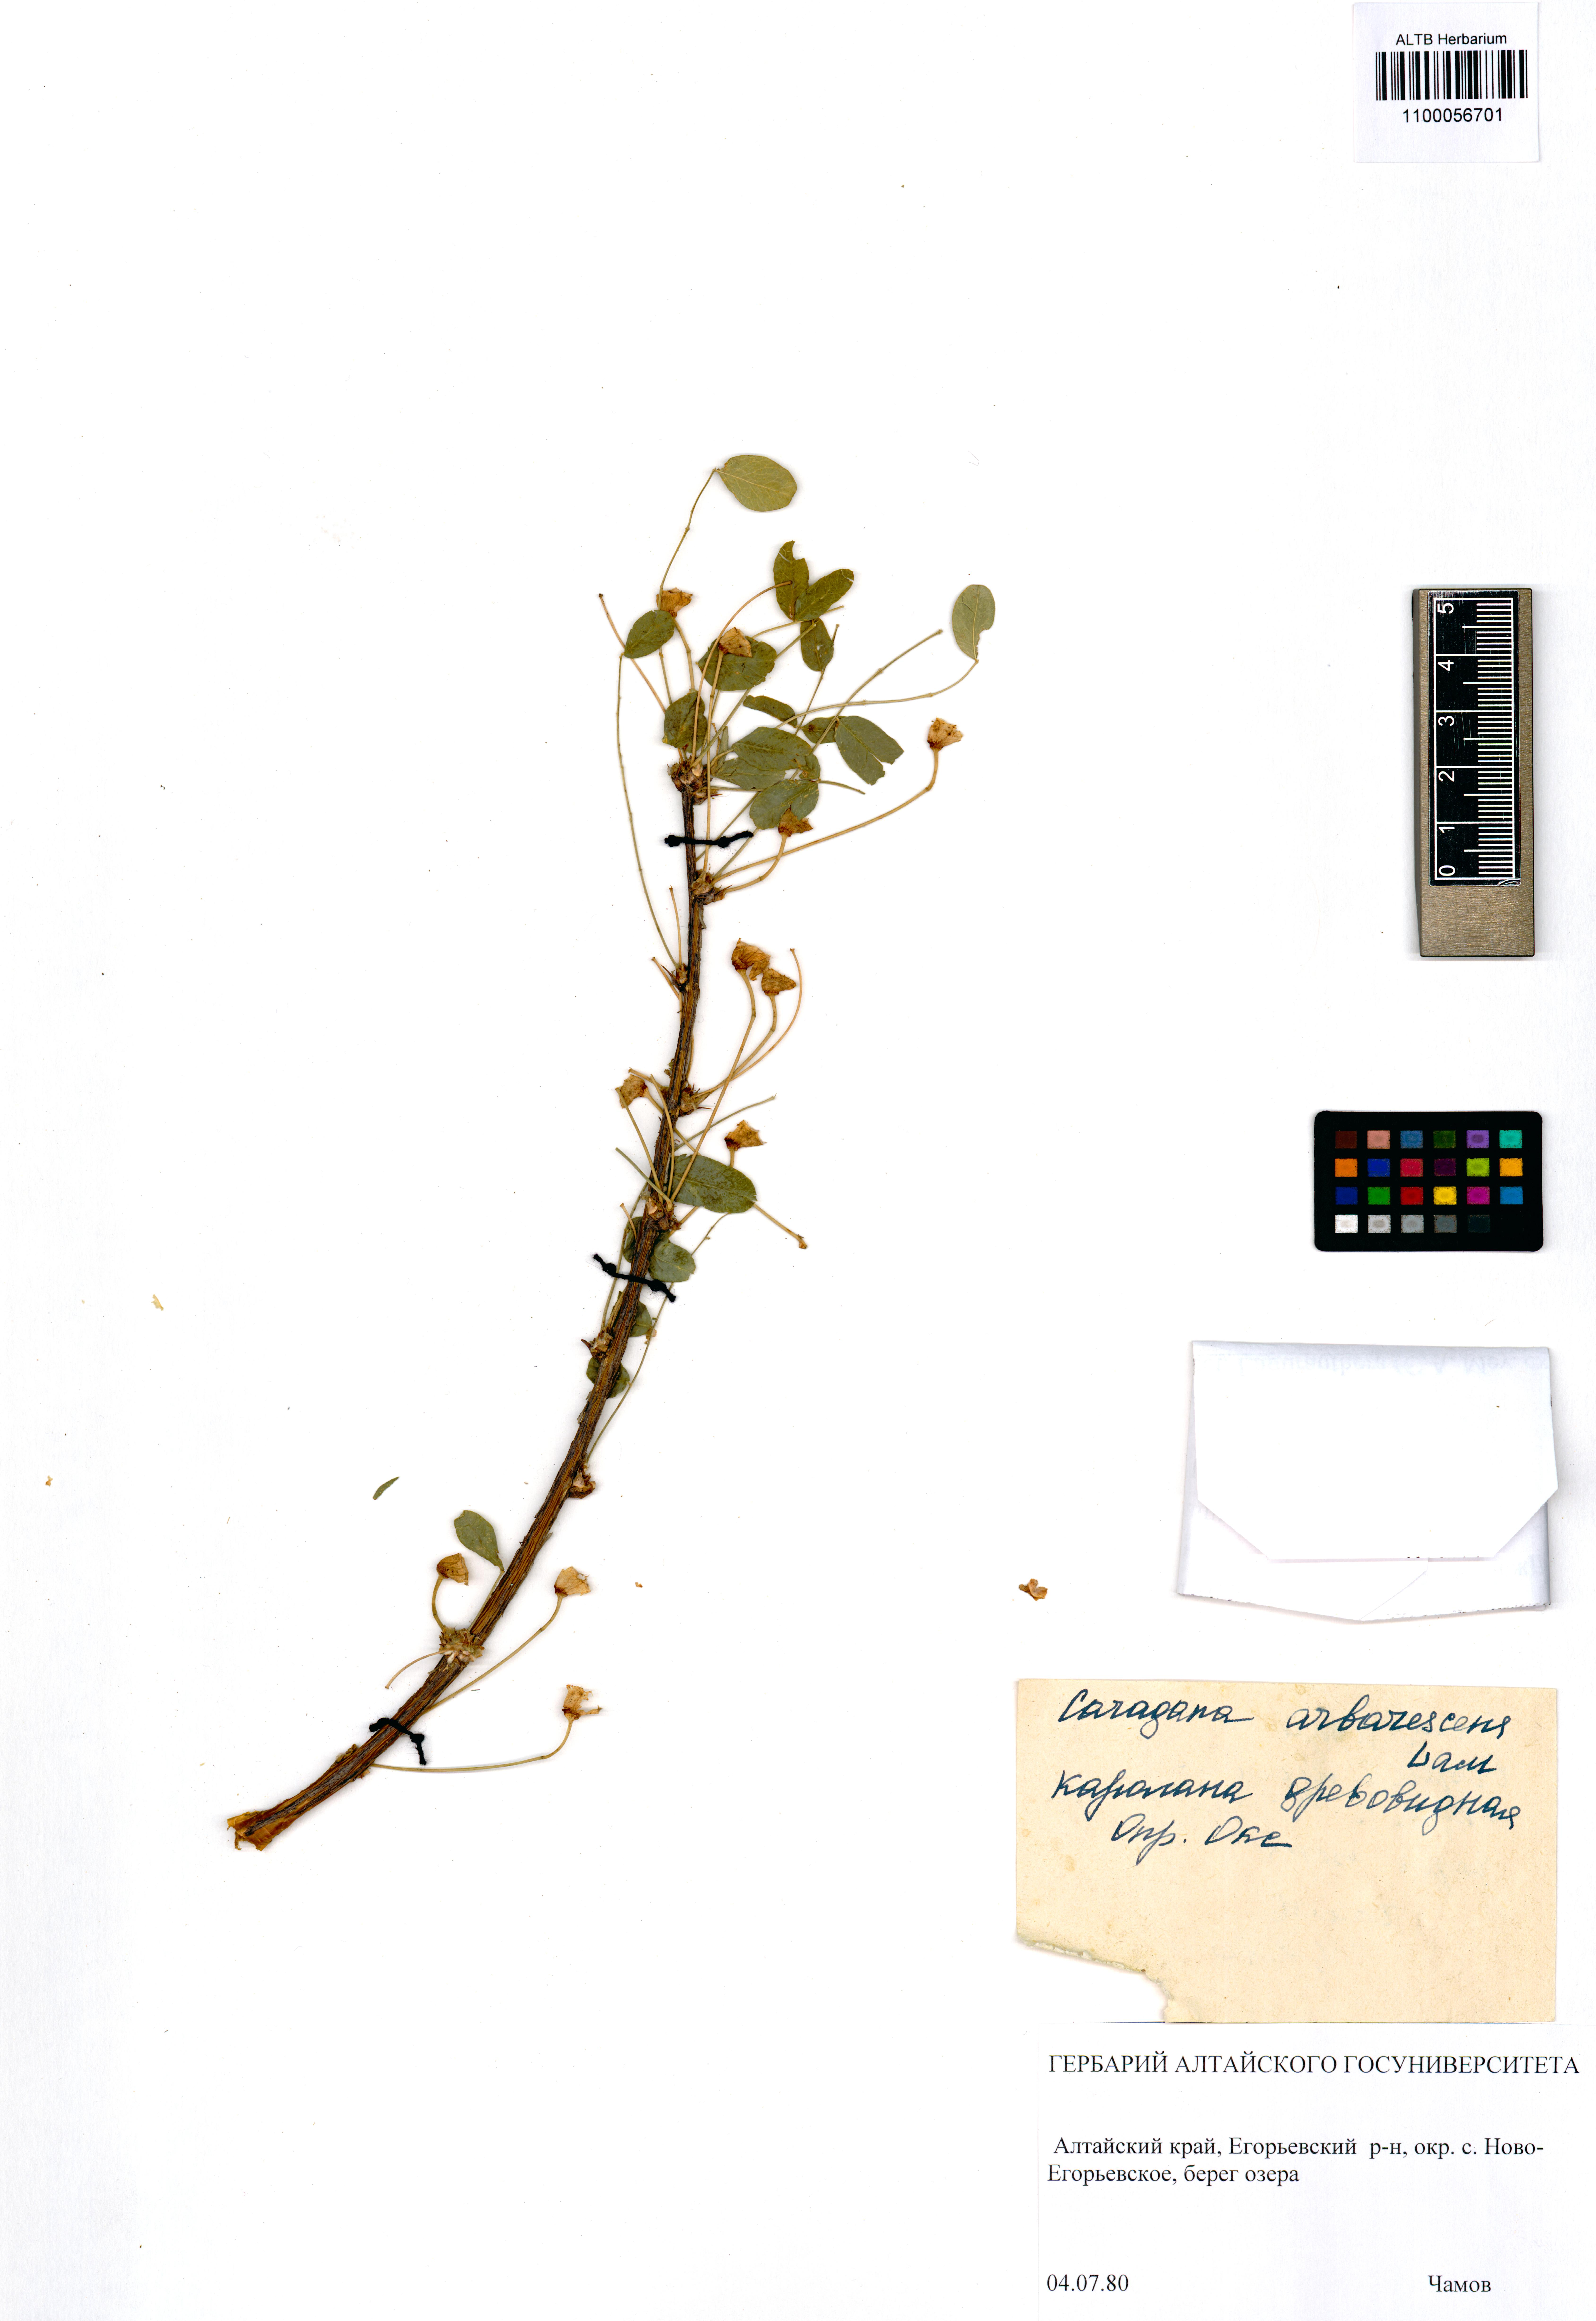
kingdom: Plantae
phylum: Tracheophyta
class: Magnoliopsida
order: Fabales
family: Fabaceae
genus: Caragana
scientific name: Caragana arborescens
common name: Siberian peashrub
